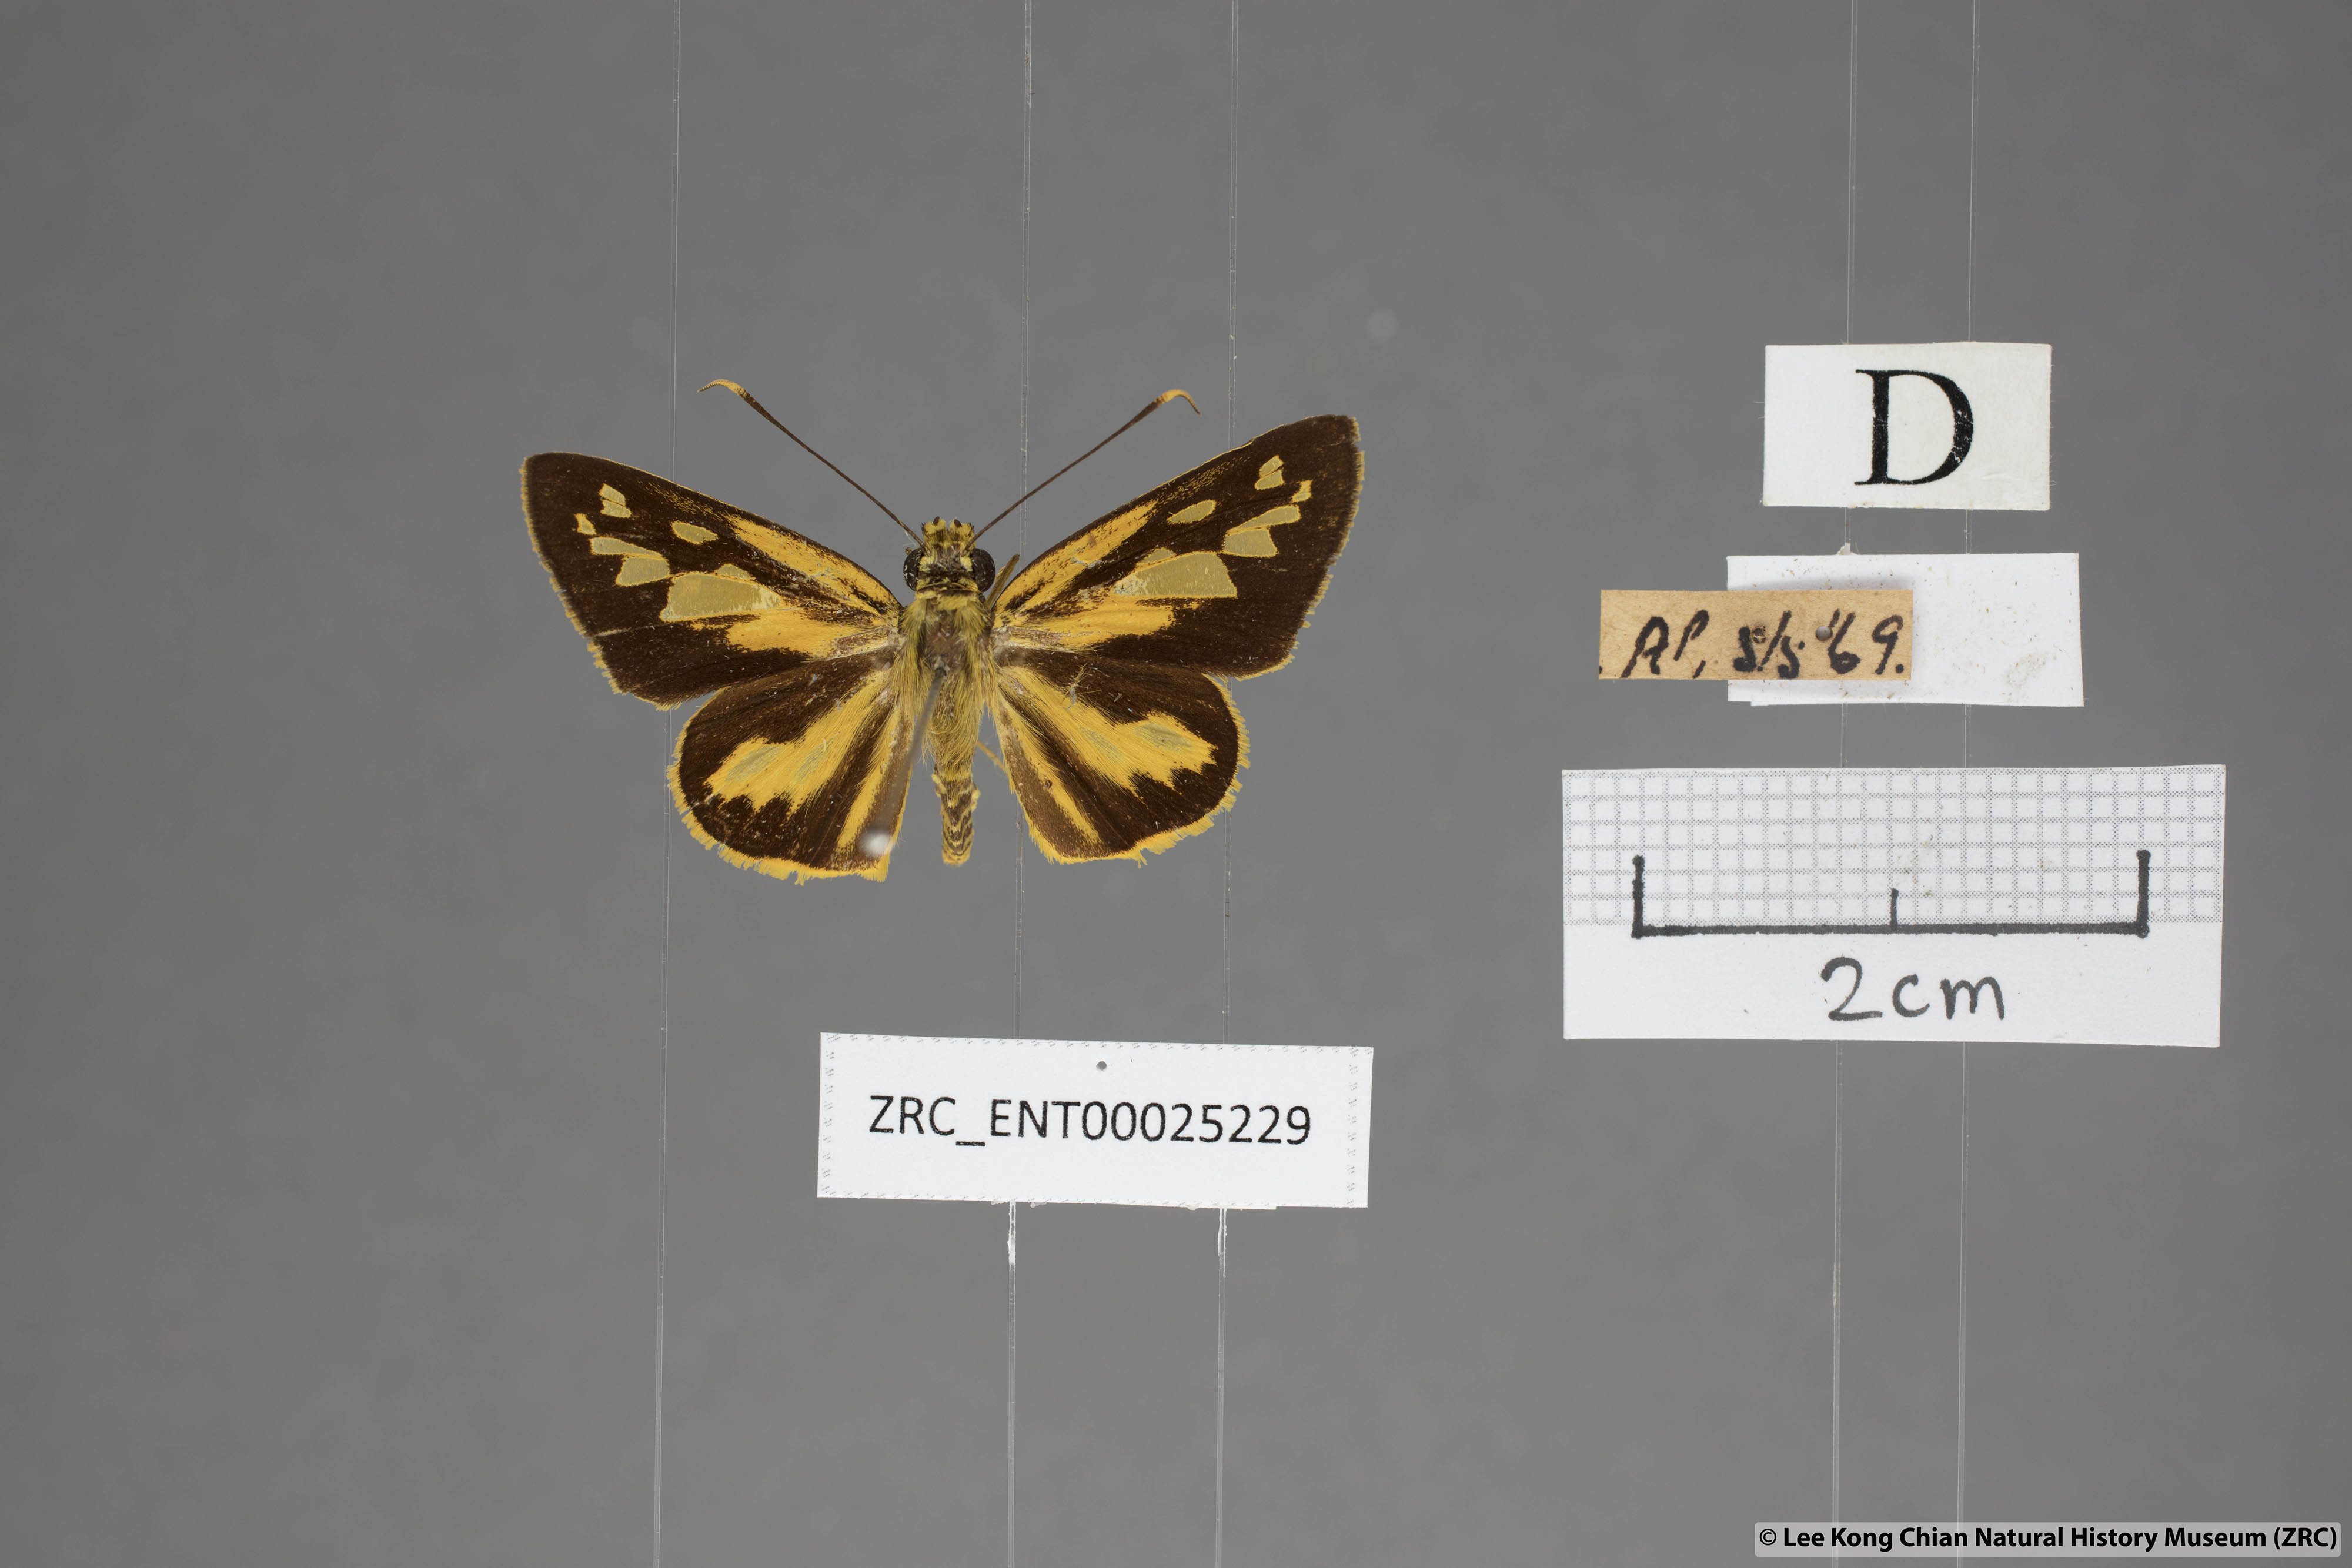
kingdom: Animalia
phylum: Arthropoda
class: Insecta
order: Lepidoptera
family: Hesperiidae
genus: Pyroneura
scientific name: Pyroneura flavia
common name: Lesser lancer
